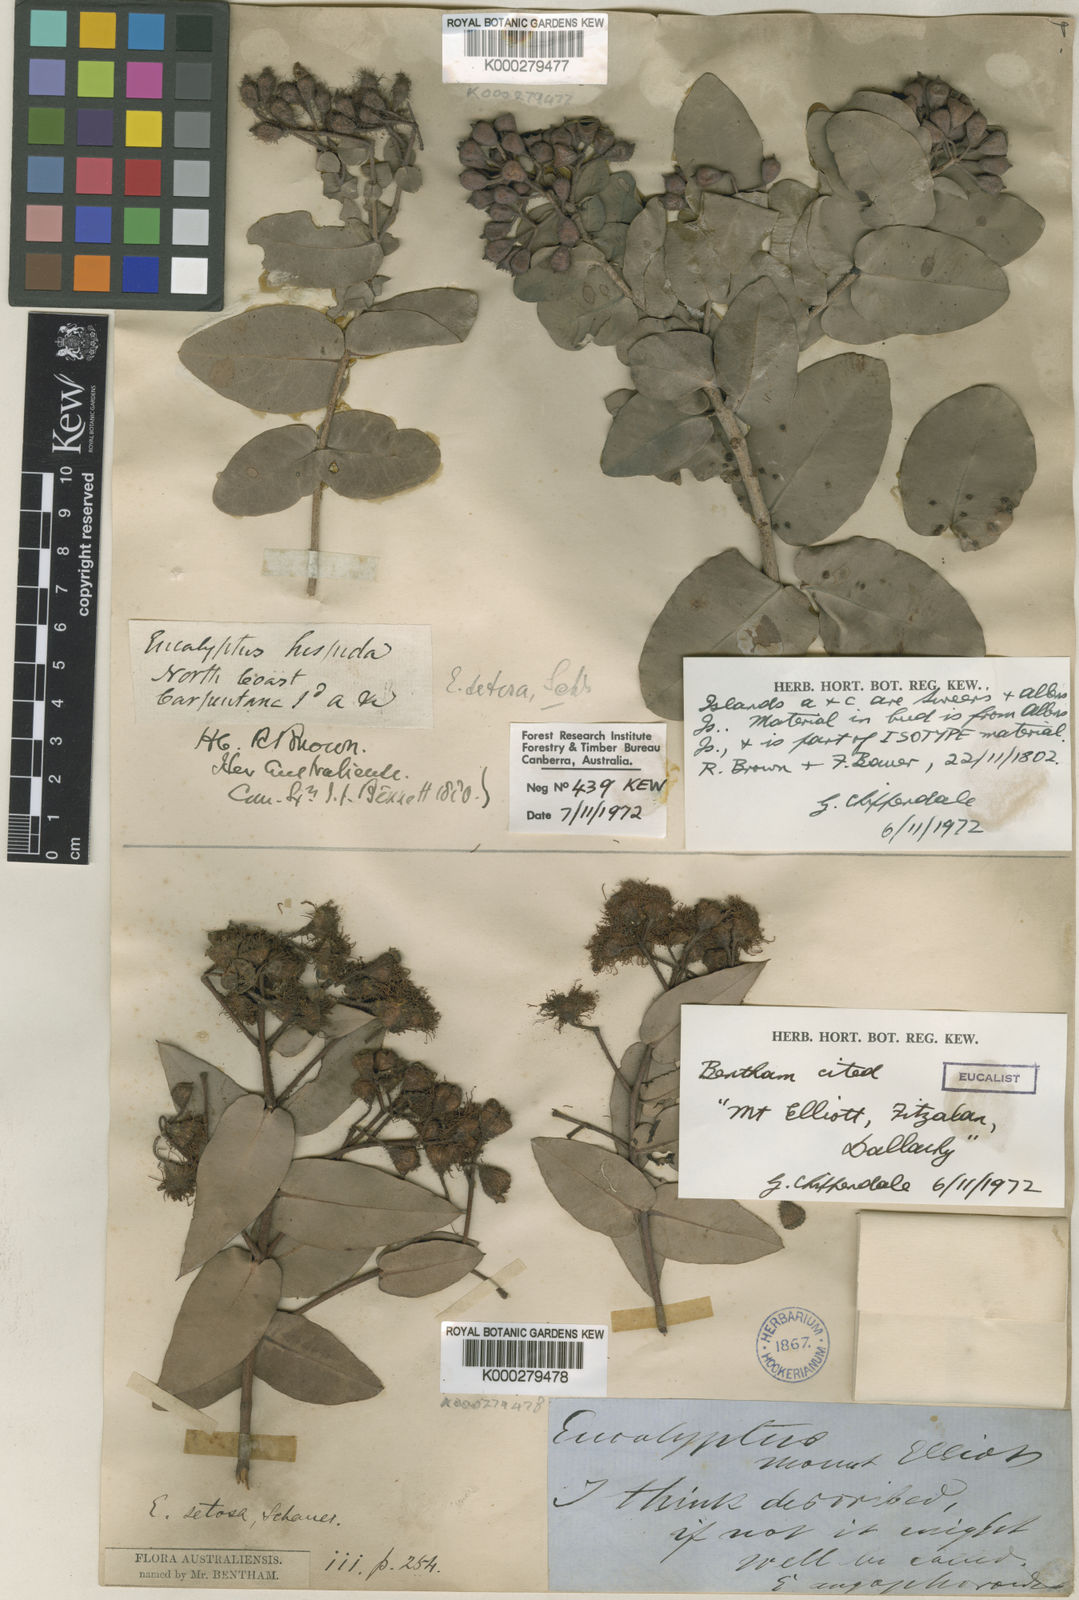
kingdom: Plantae
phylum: Tracheophyta
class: Magnoliopsida
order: Myrtales
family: Myrtaceae
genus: Corymbia
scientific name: Corymbia setosa
